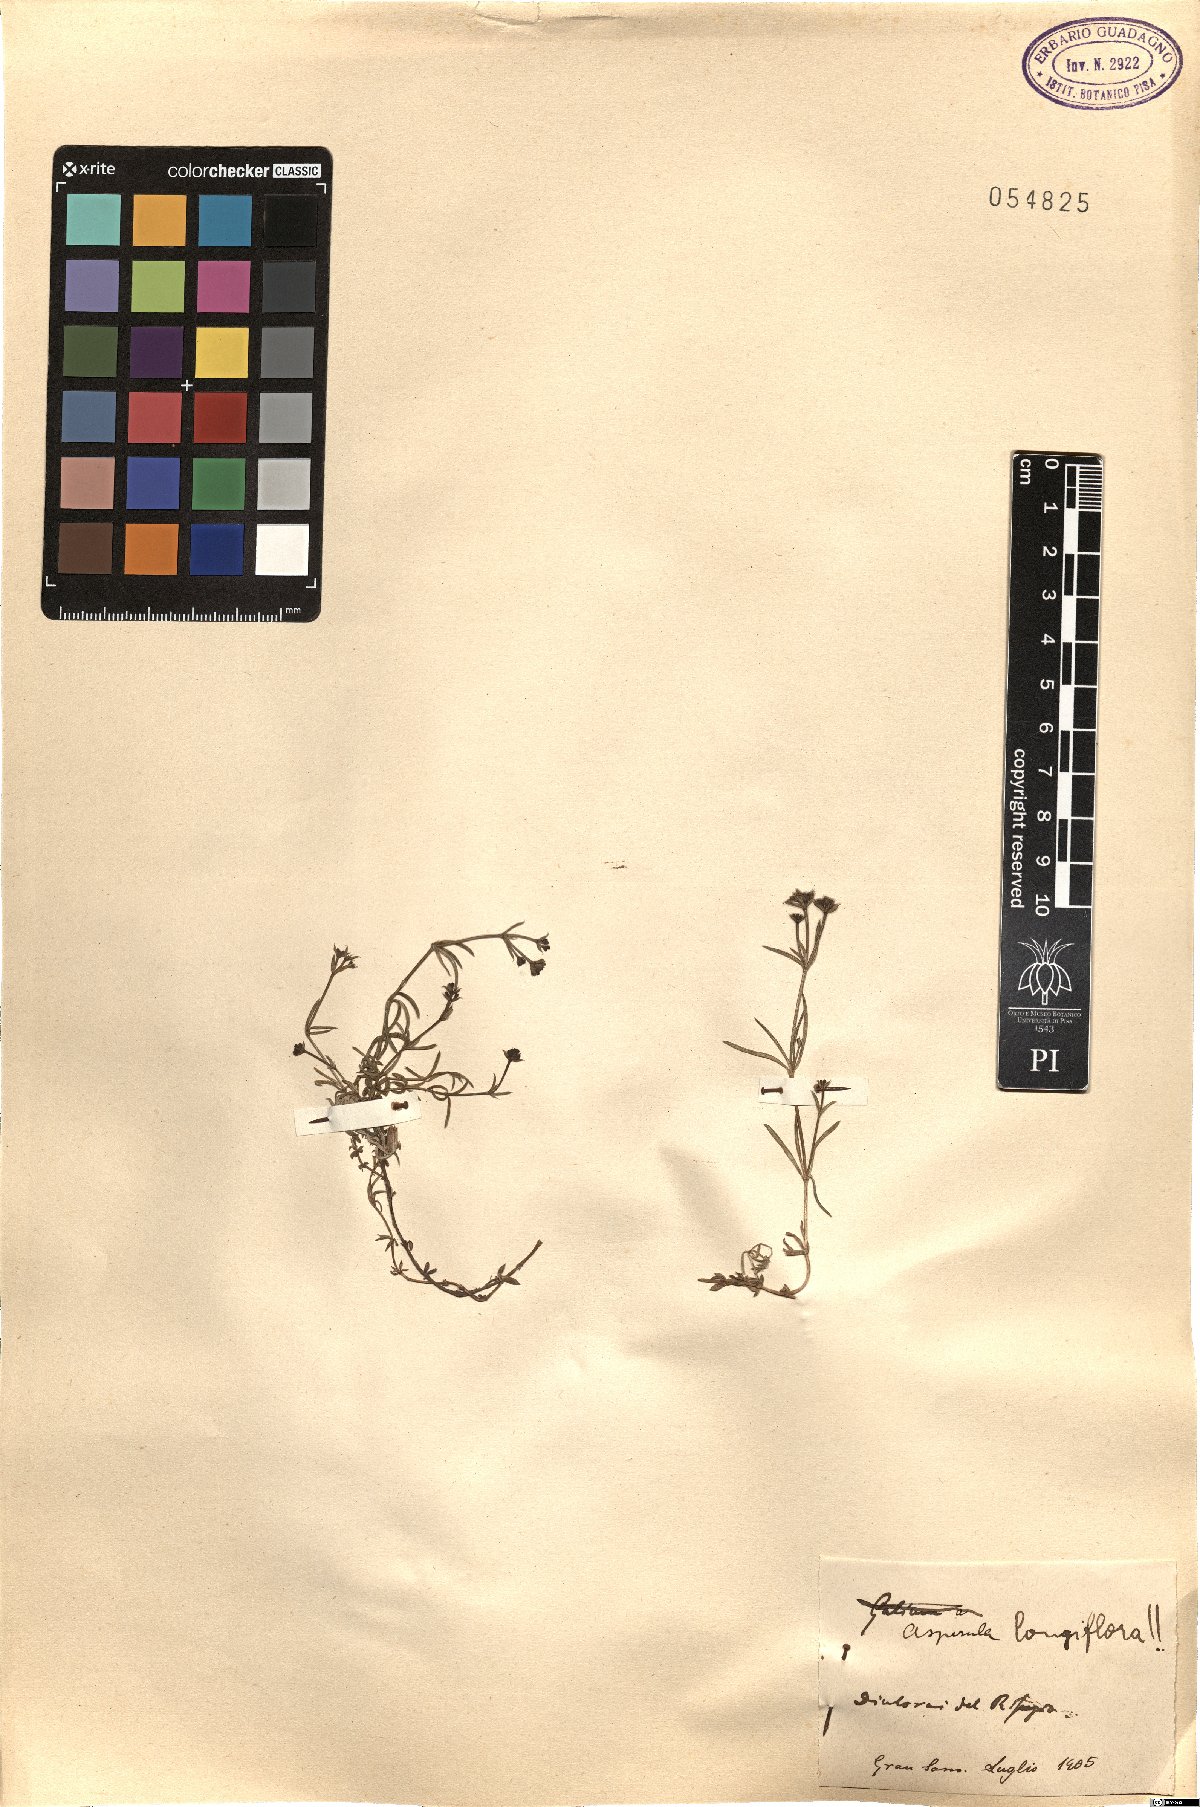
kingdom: Plantae
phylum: Tracheophyta
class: Magnoliopsida
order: Gentianales
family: Rubiaceae
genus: Cynanchica
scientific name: Cynanchica aristata
